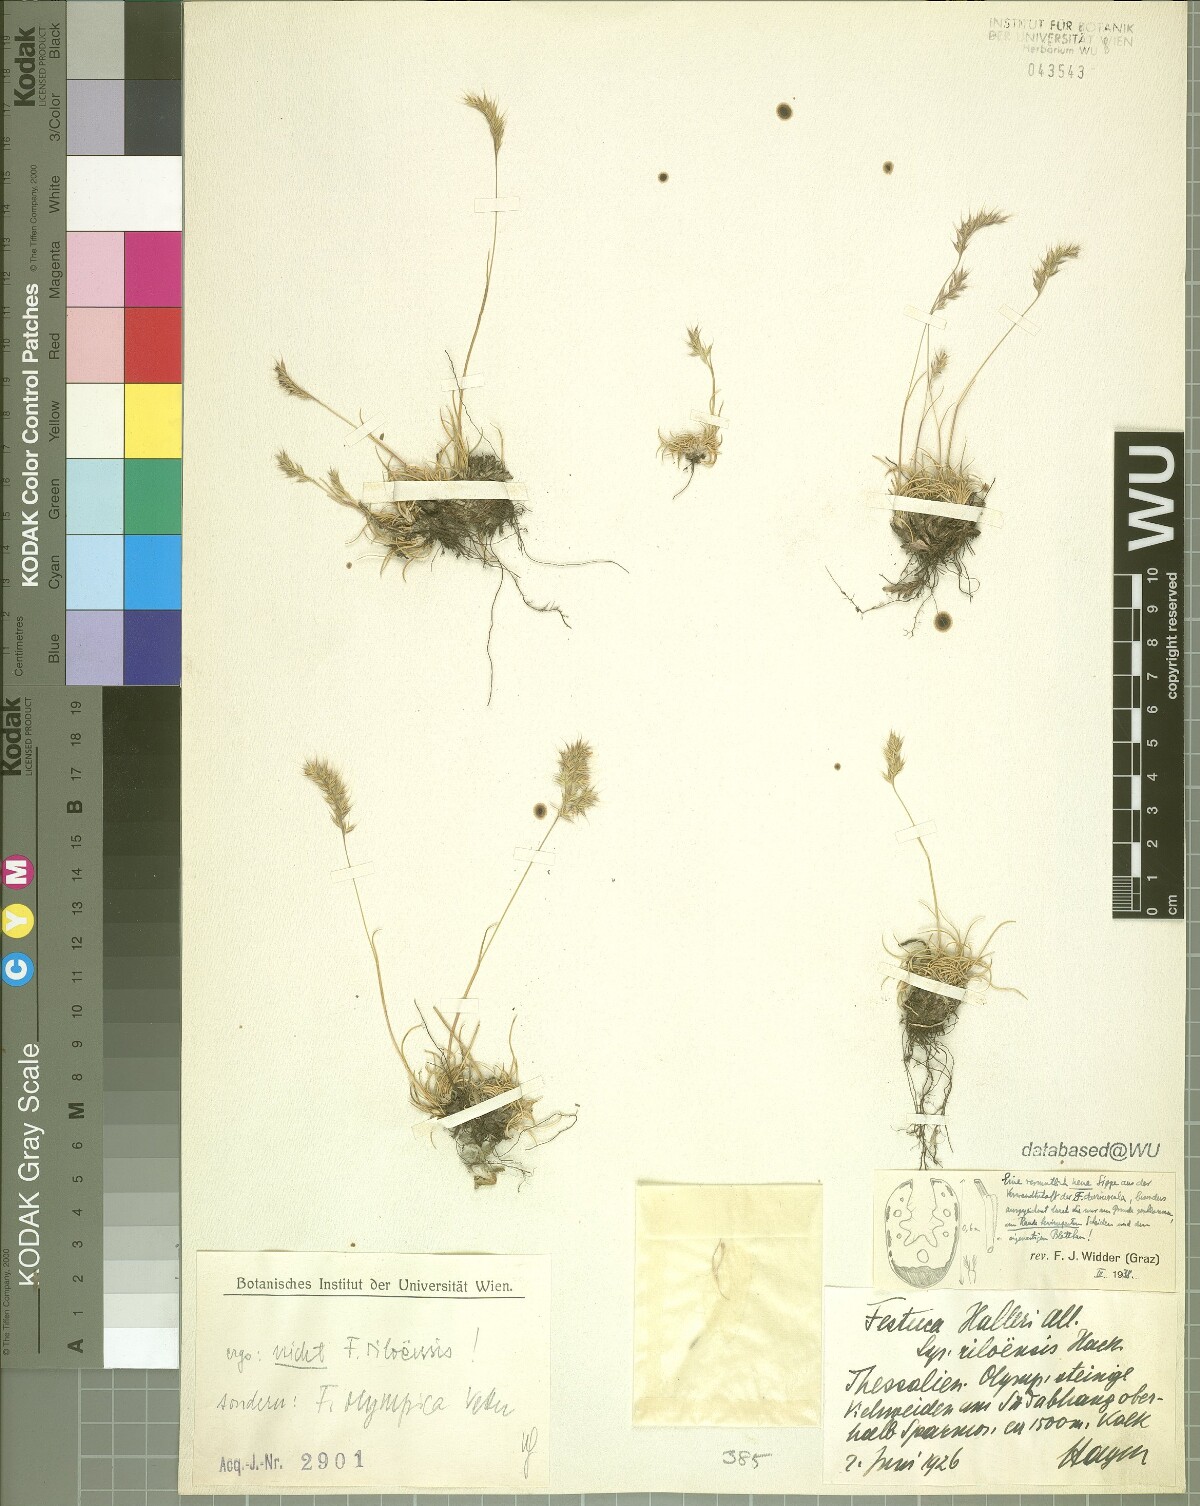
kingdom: Plantae
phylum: Tracheophyta
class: Liliopsida
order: Poales
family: Poaceae
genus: Festuca
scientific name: Festuca riloensis
